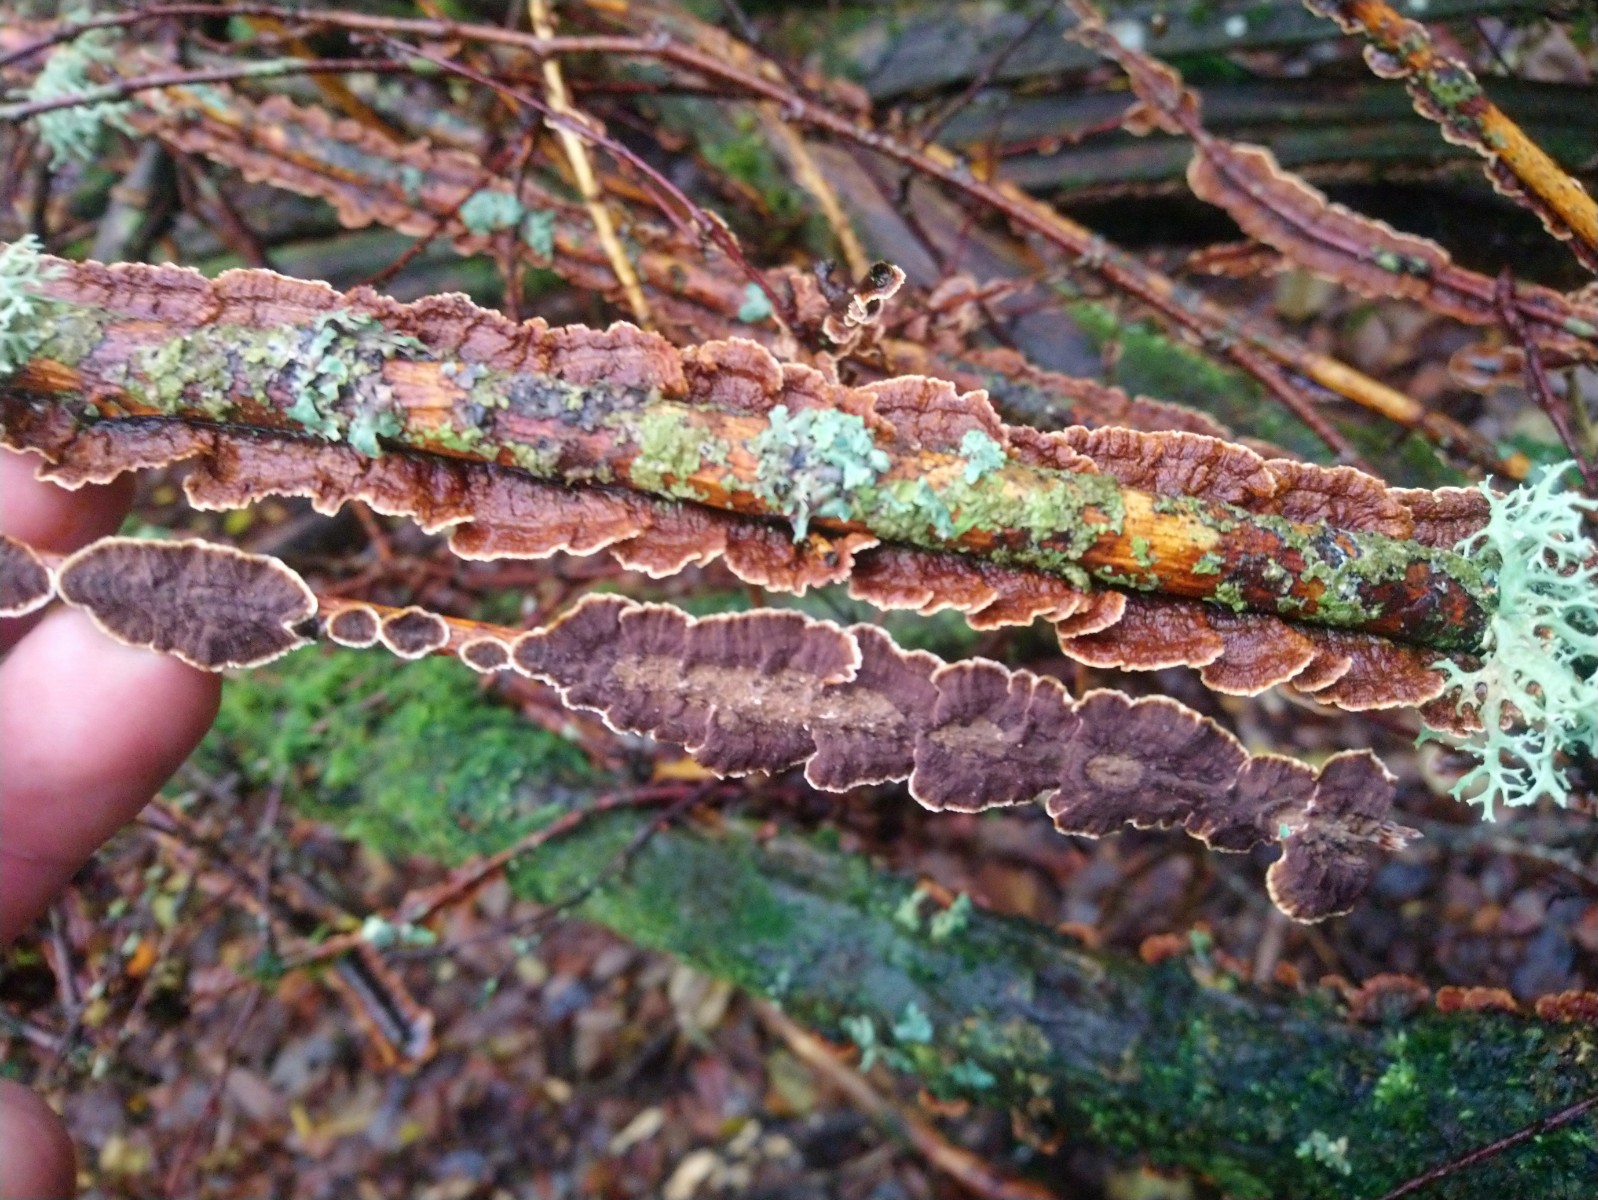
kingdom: Fungi
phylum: Basidiomycota
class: Agaricomycetes
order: Hymenochaetales
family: Hymenochaetaceae
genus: Hydnoporia
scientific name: Hydnoporia tabacina
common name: tobaksbrun ruslædersvamp
